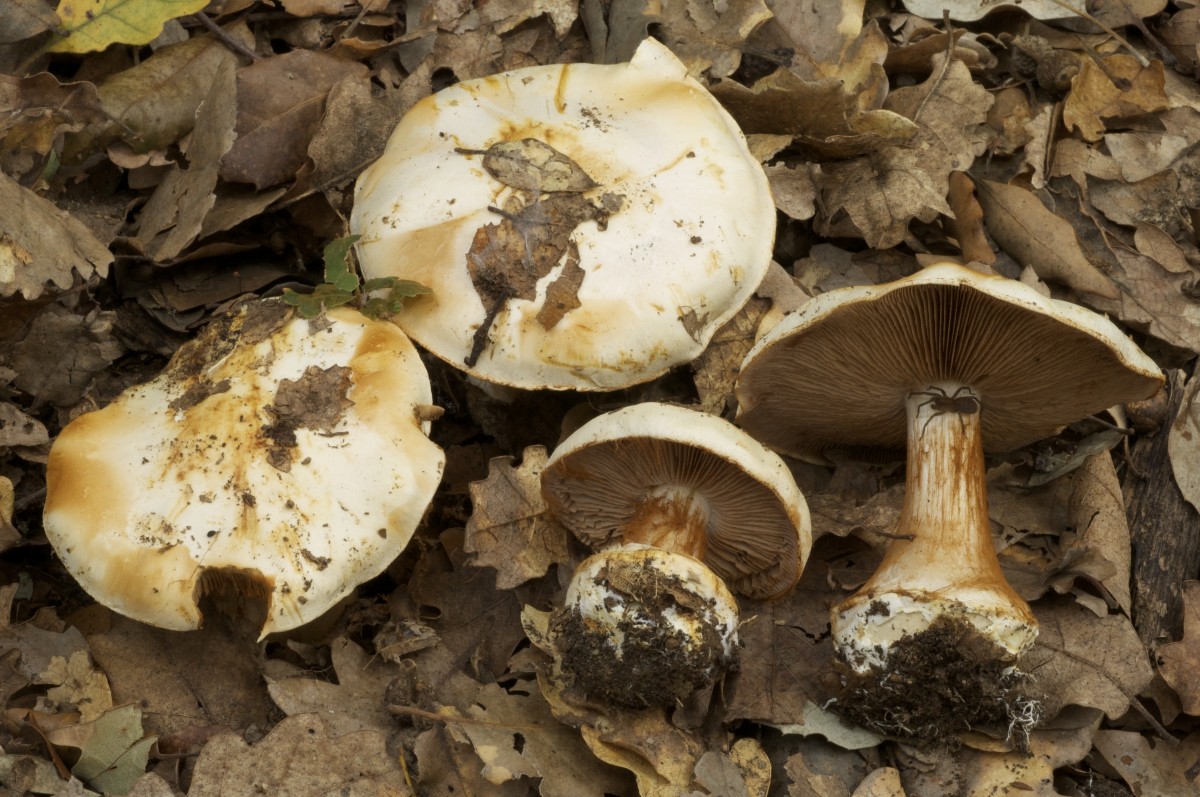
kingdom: Fungi
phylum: Basidiomycota
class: Agaricomycetes
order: Agaricales
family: Cortinariaceae
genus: Calonarius
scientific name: Calonarius albertii
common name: Alberts slørhat
